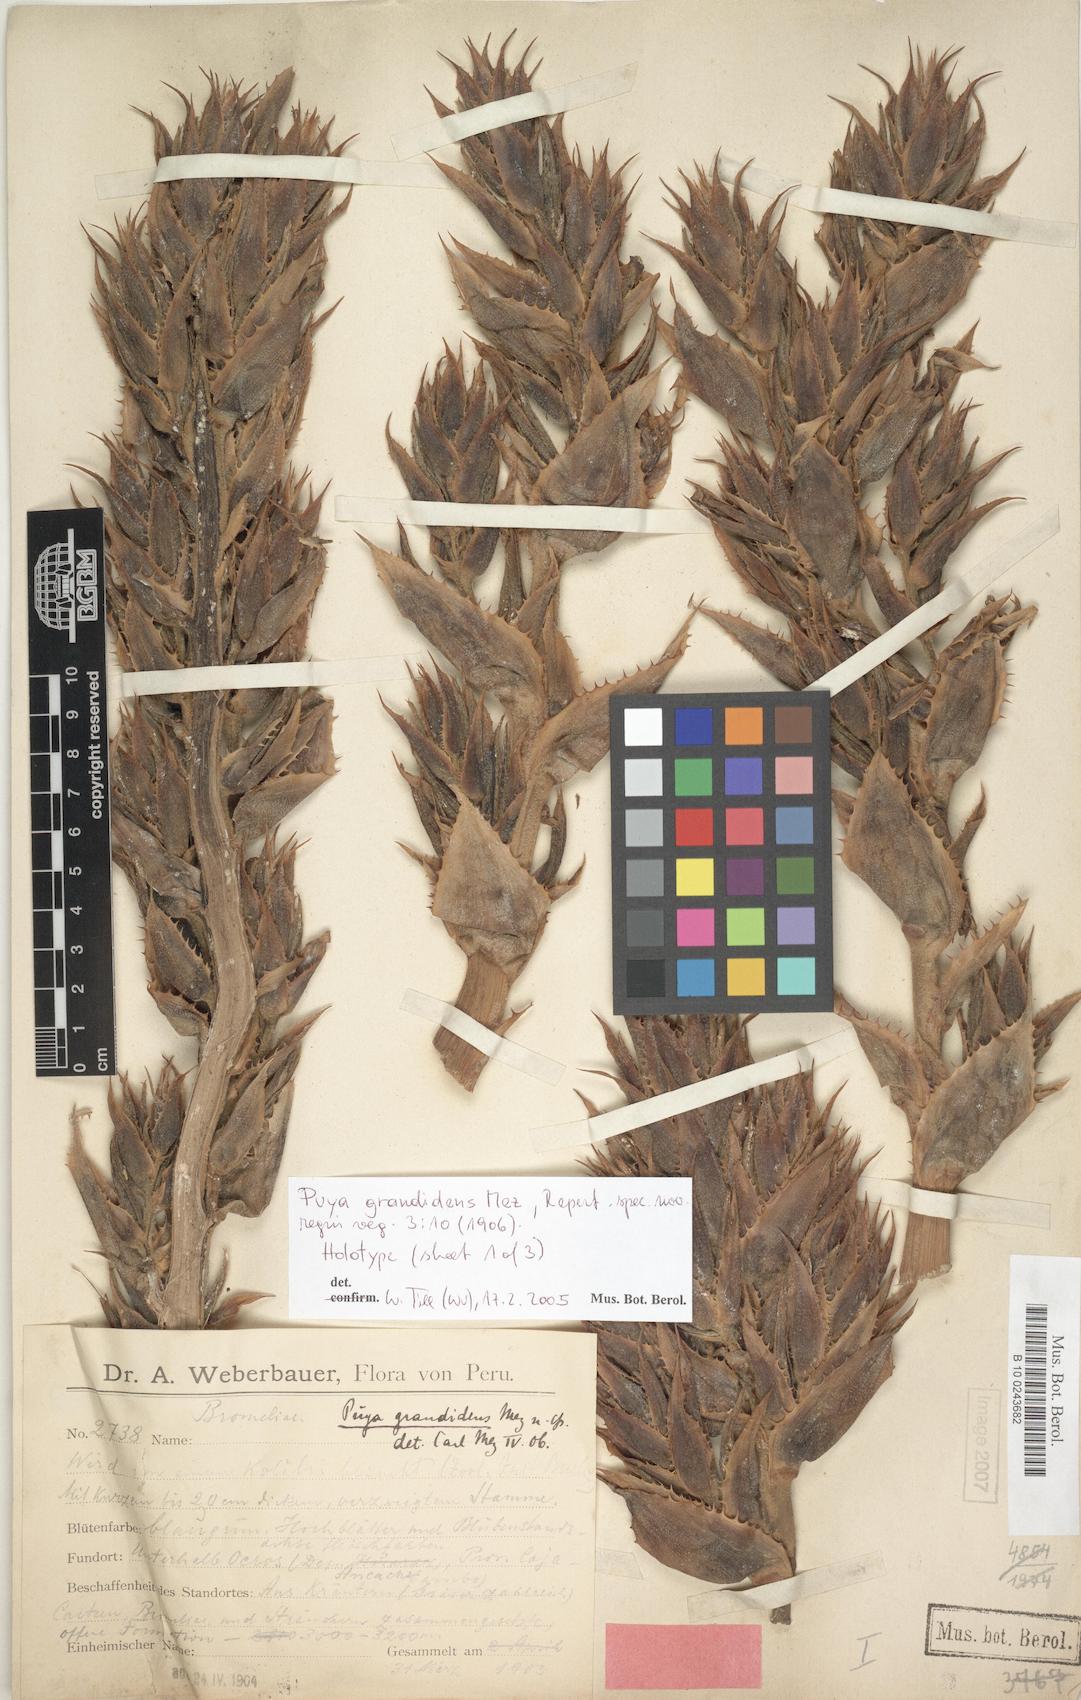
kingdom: Plantae
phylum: Tracheophyta
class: Liliopsida
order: Poales
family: Bromeliaceae
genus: Puya
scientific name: Puya grandidens
